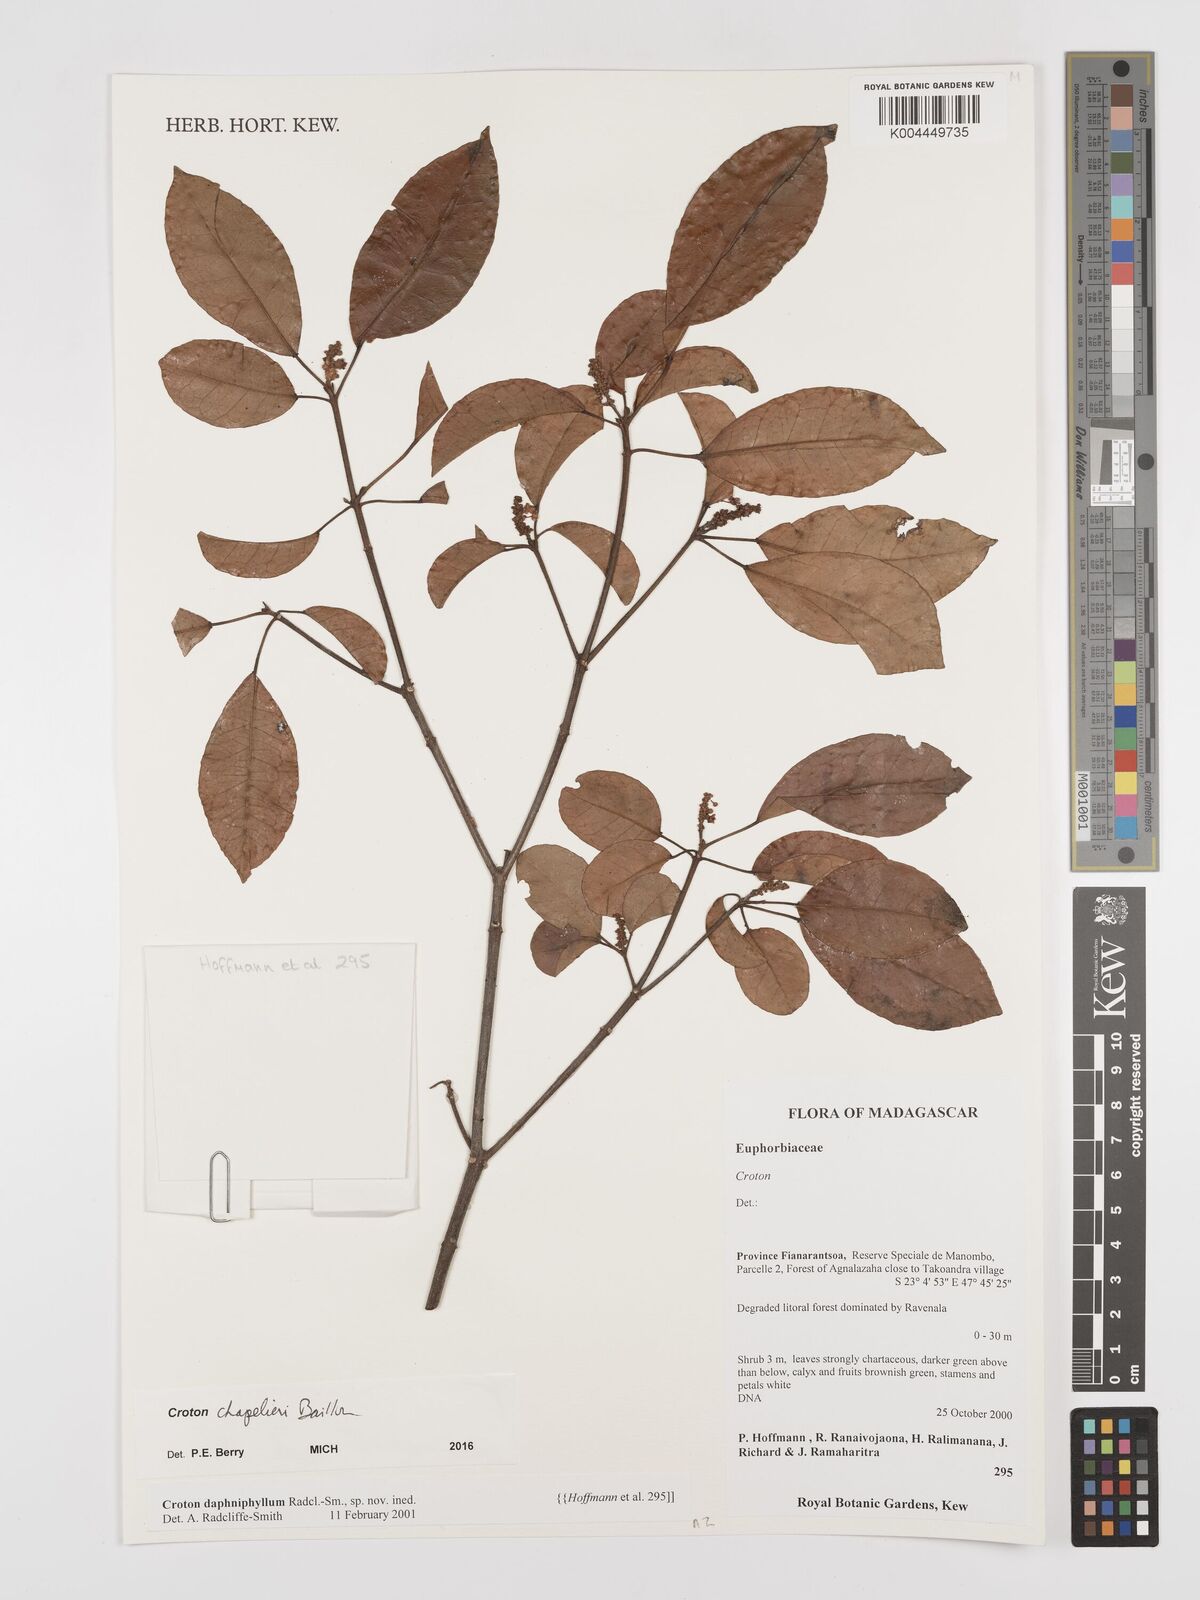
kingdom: Plantae
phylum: Tracheophyta
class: Magnoliopsida
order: Malpighiales
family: Euphorbiaceae
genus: Croton
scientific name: Croton chapelieri
